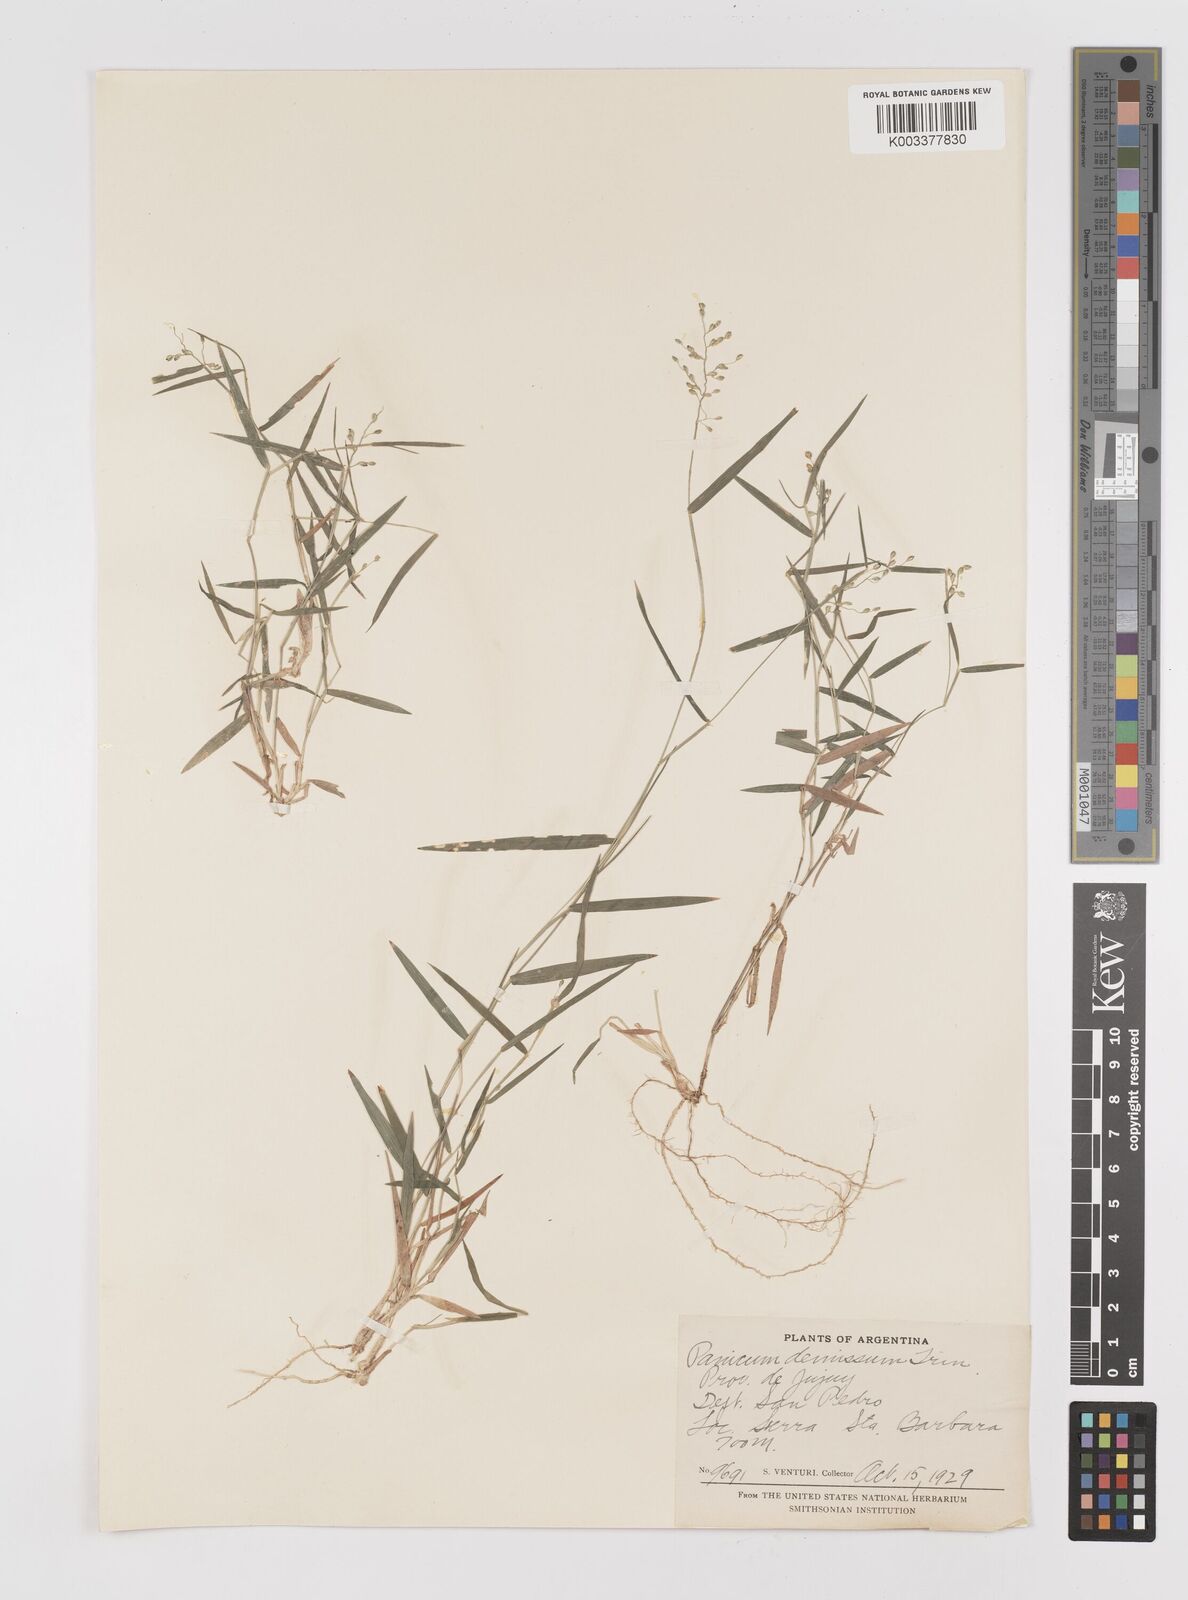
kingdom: Plantae
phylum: Tracheophyta
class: Liliopsida
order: Poales
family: Poaceae
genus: Dichanthelium
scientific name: Dichanthelium sabulorum
